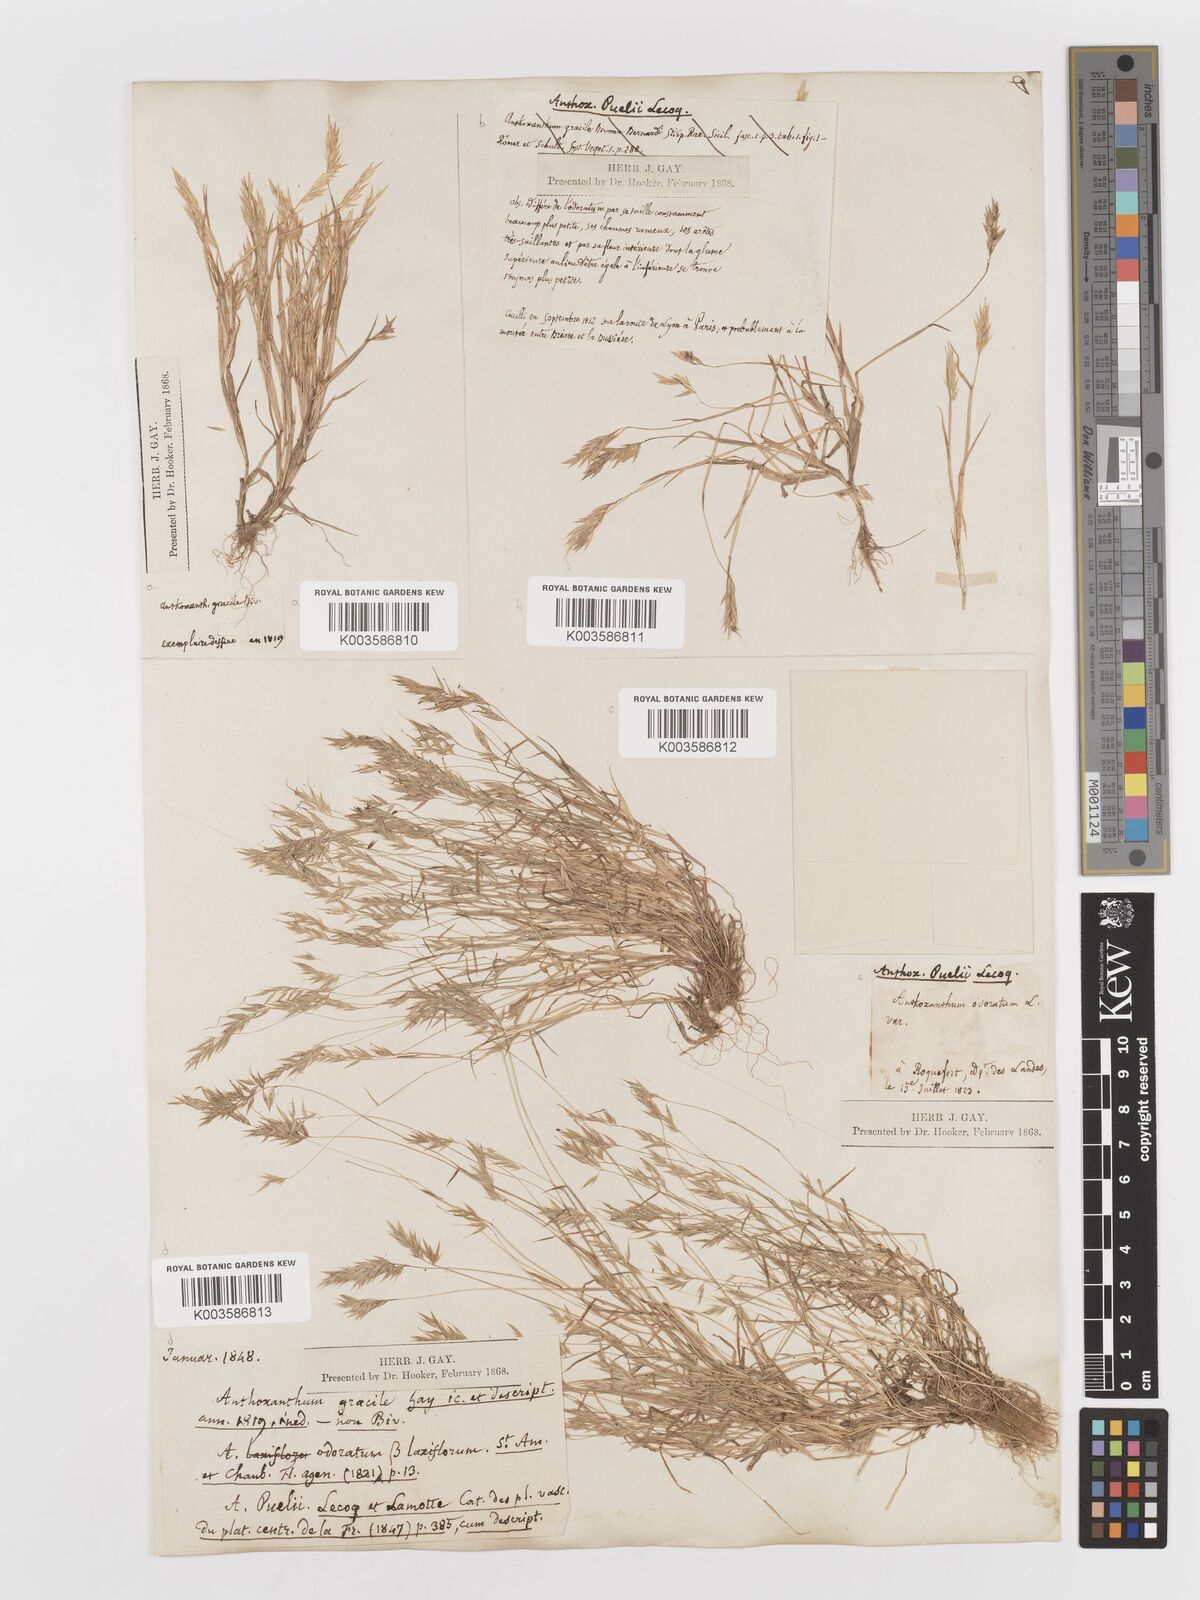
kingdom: Plantae
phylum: Tracheophyta
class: Liliopsida
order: Poales
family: Poaceae
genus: Anthoxanthum
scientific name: Anthoxanthum
